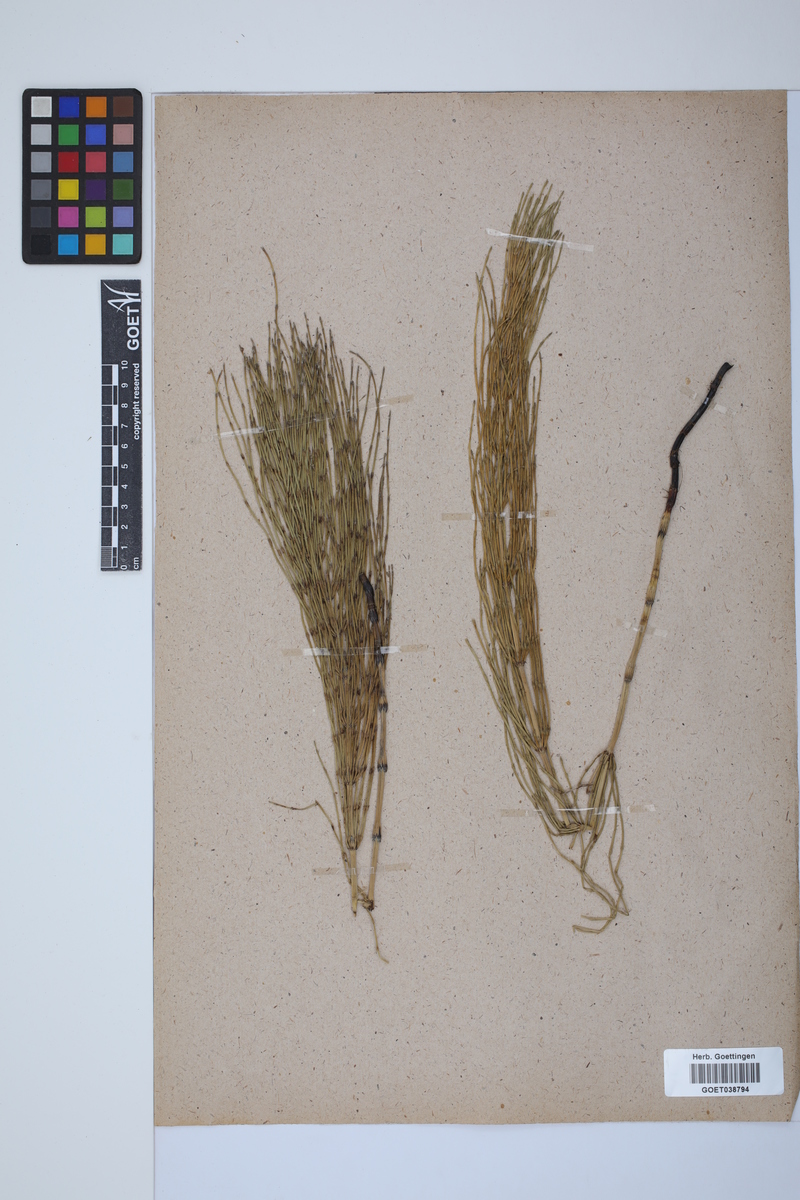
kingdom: Plantae
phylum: Tracheophyta
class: Polypodiopsida
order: Equisetales
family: Equisetaceae
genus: Equisetum
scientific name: Equisetum palustre
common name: Marsh horsetail
